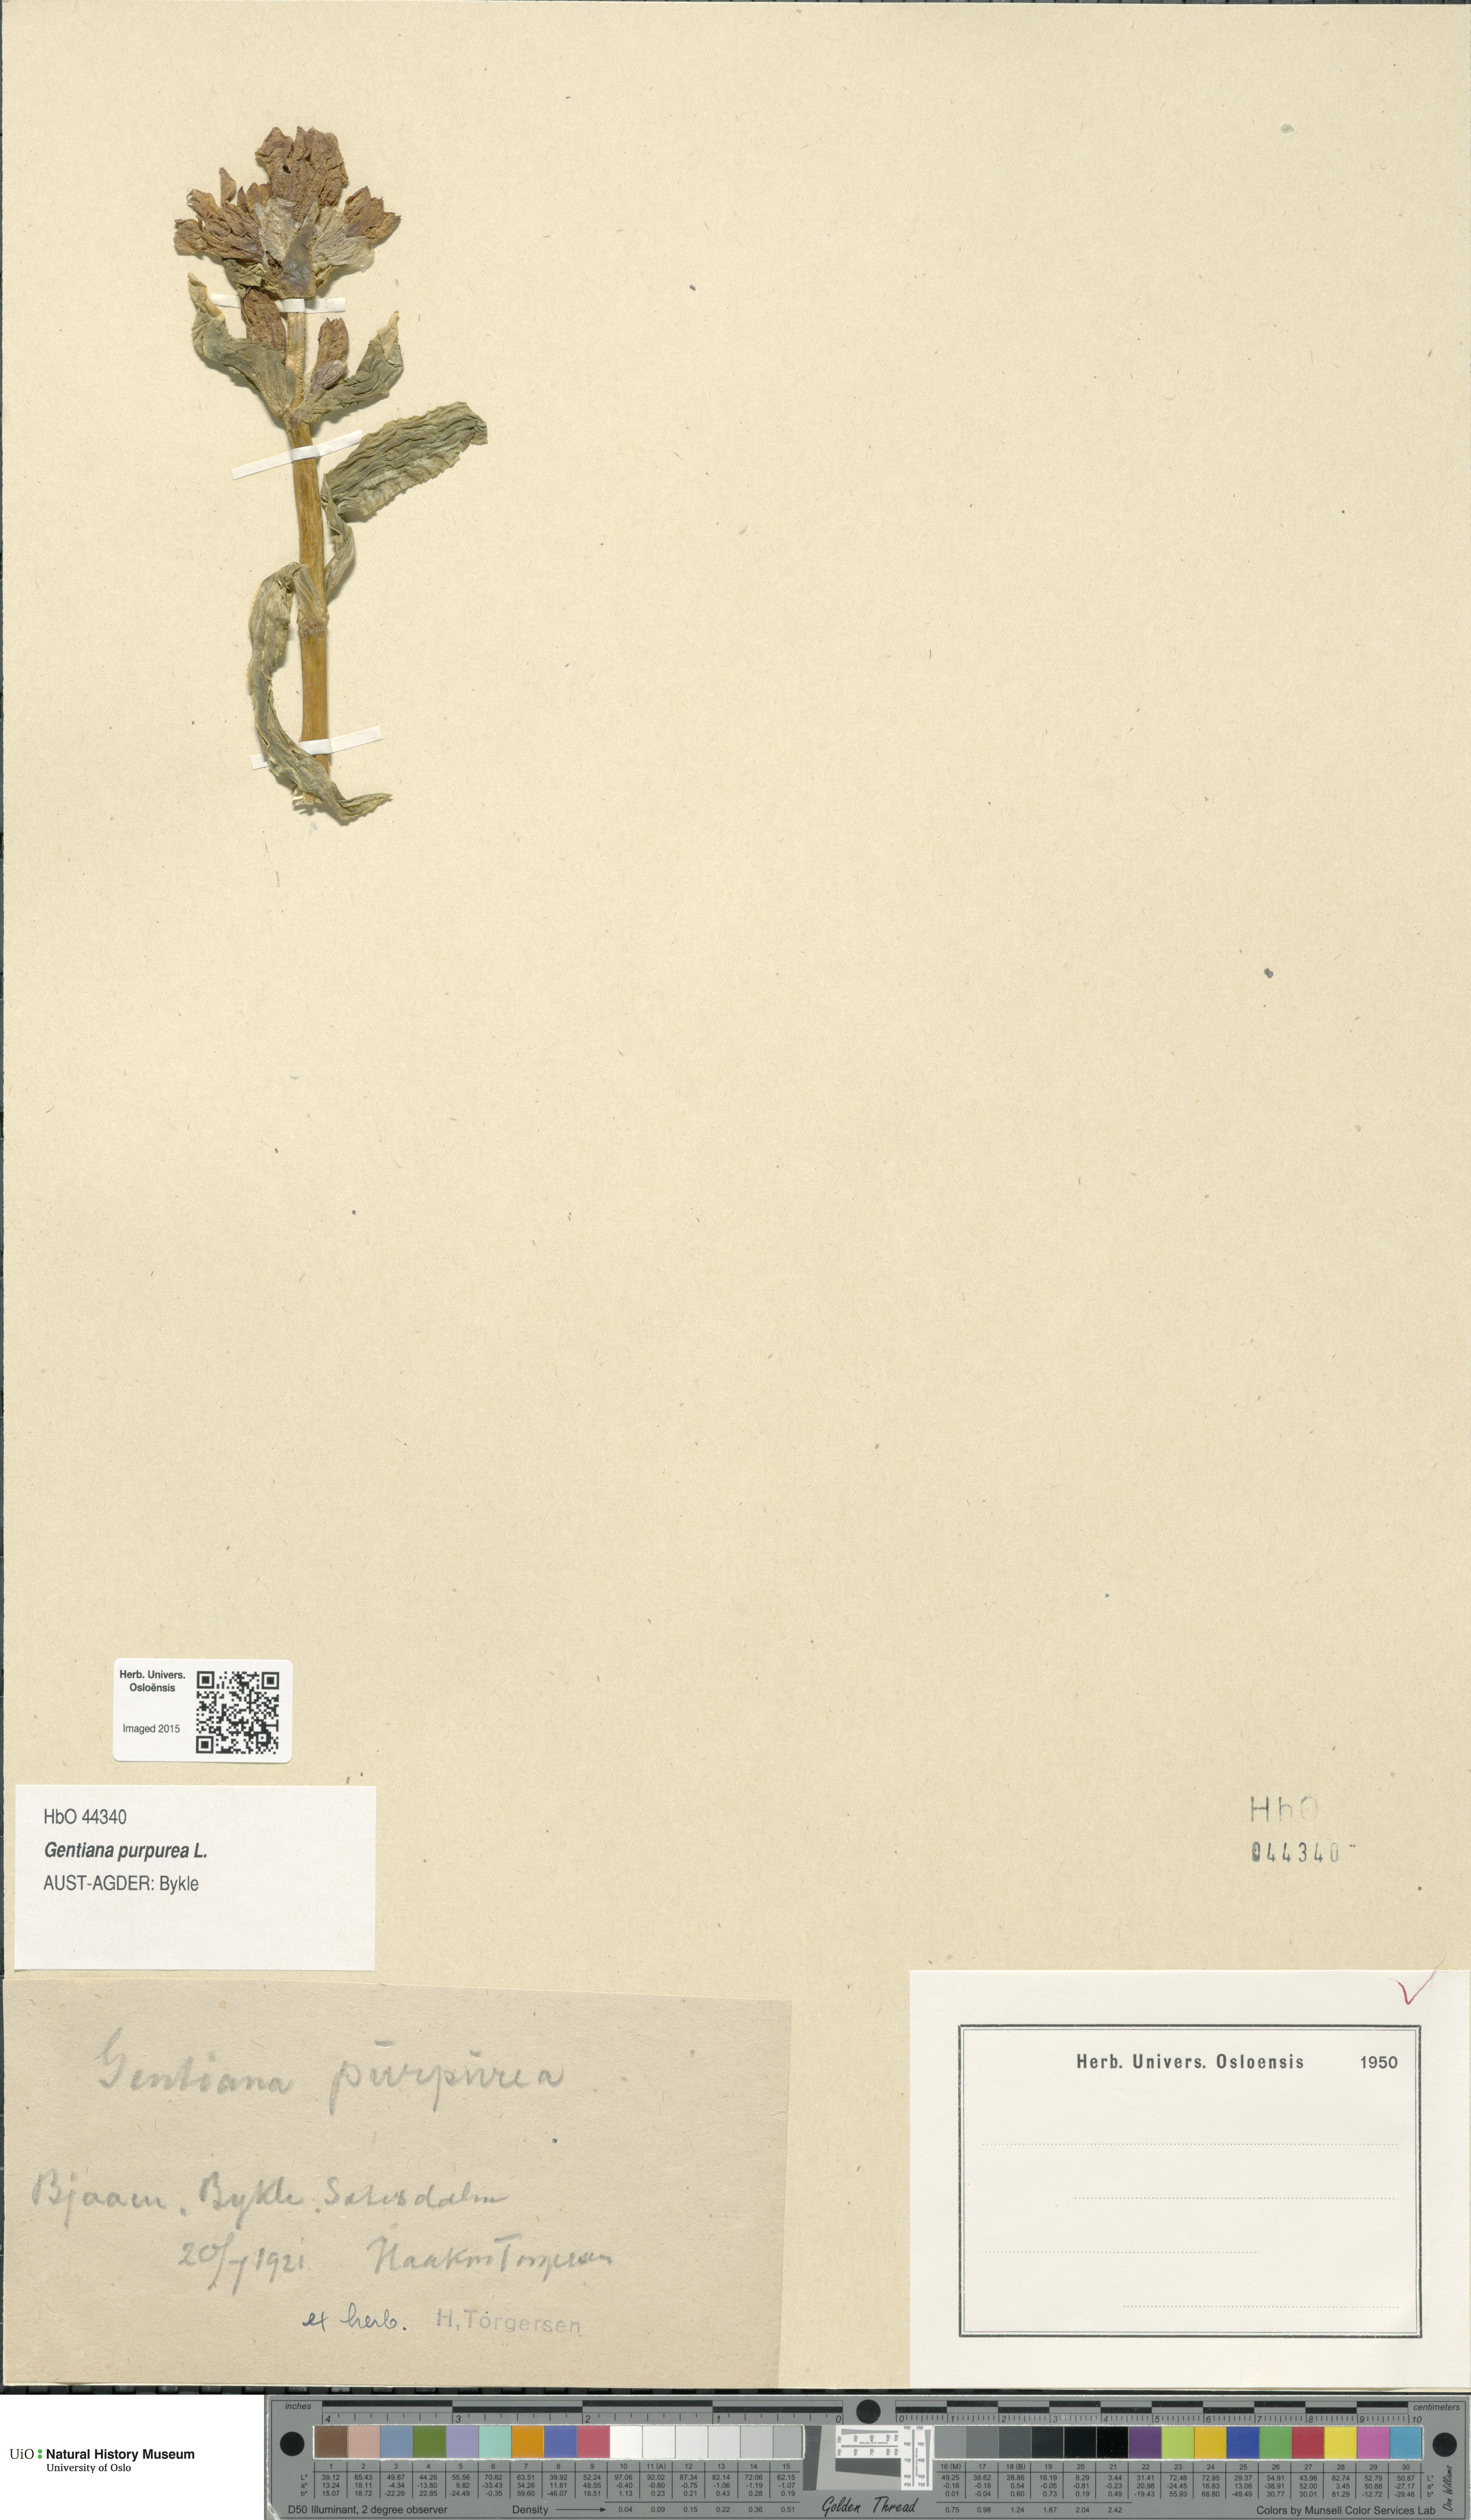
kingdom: Plantae
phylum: Tracheophyta
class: Magnoliopsida
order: Gentianales
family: Gentianaceae
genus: Gentiana
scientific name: Gentiana purpurea
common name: Purple gentian
